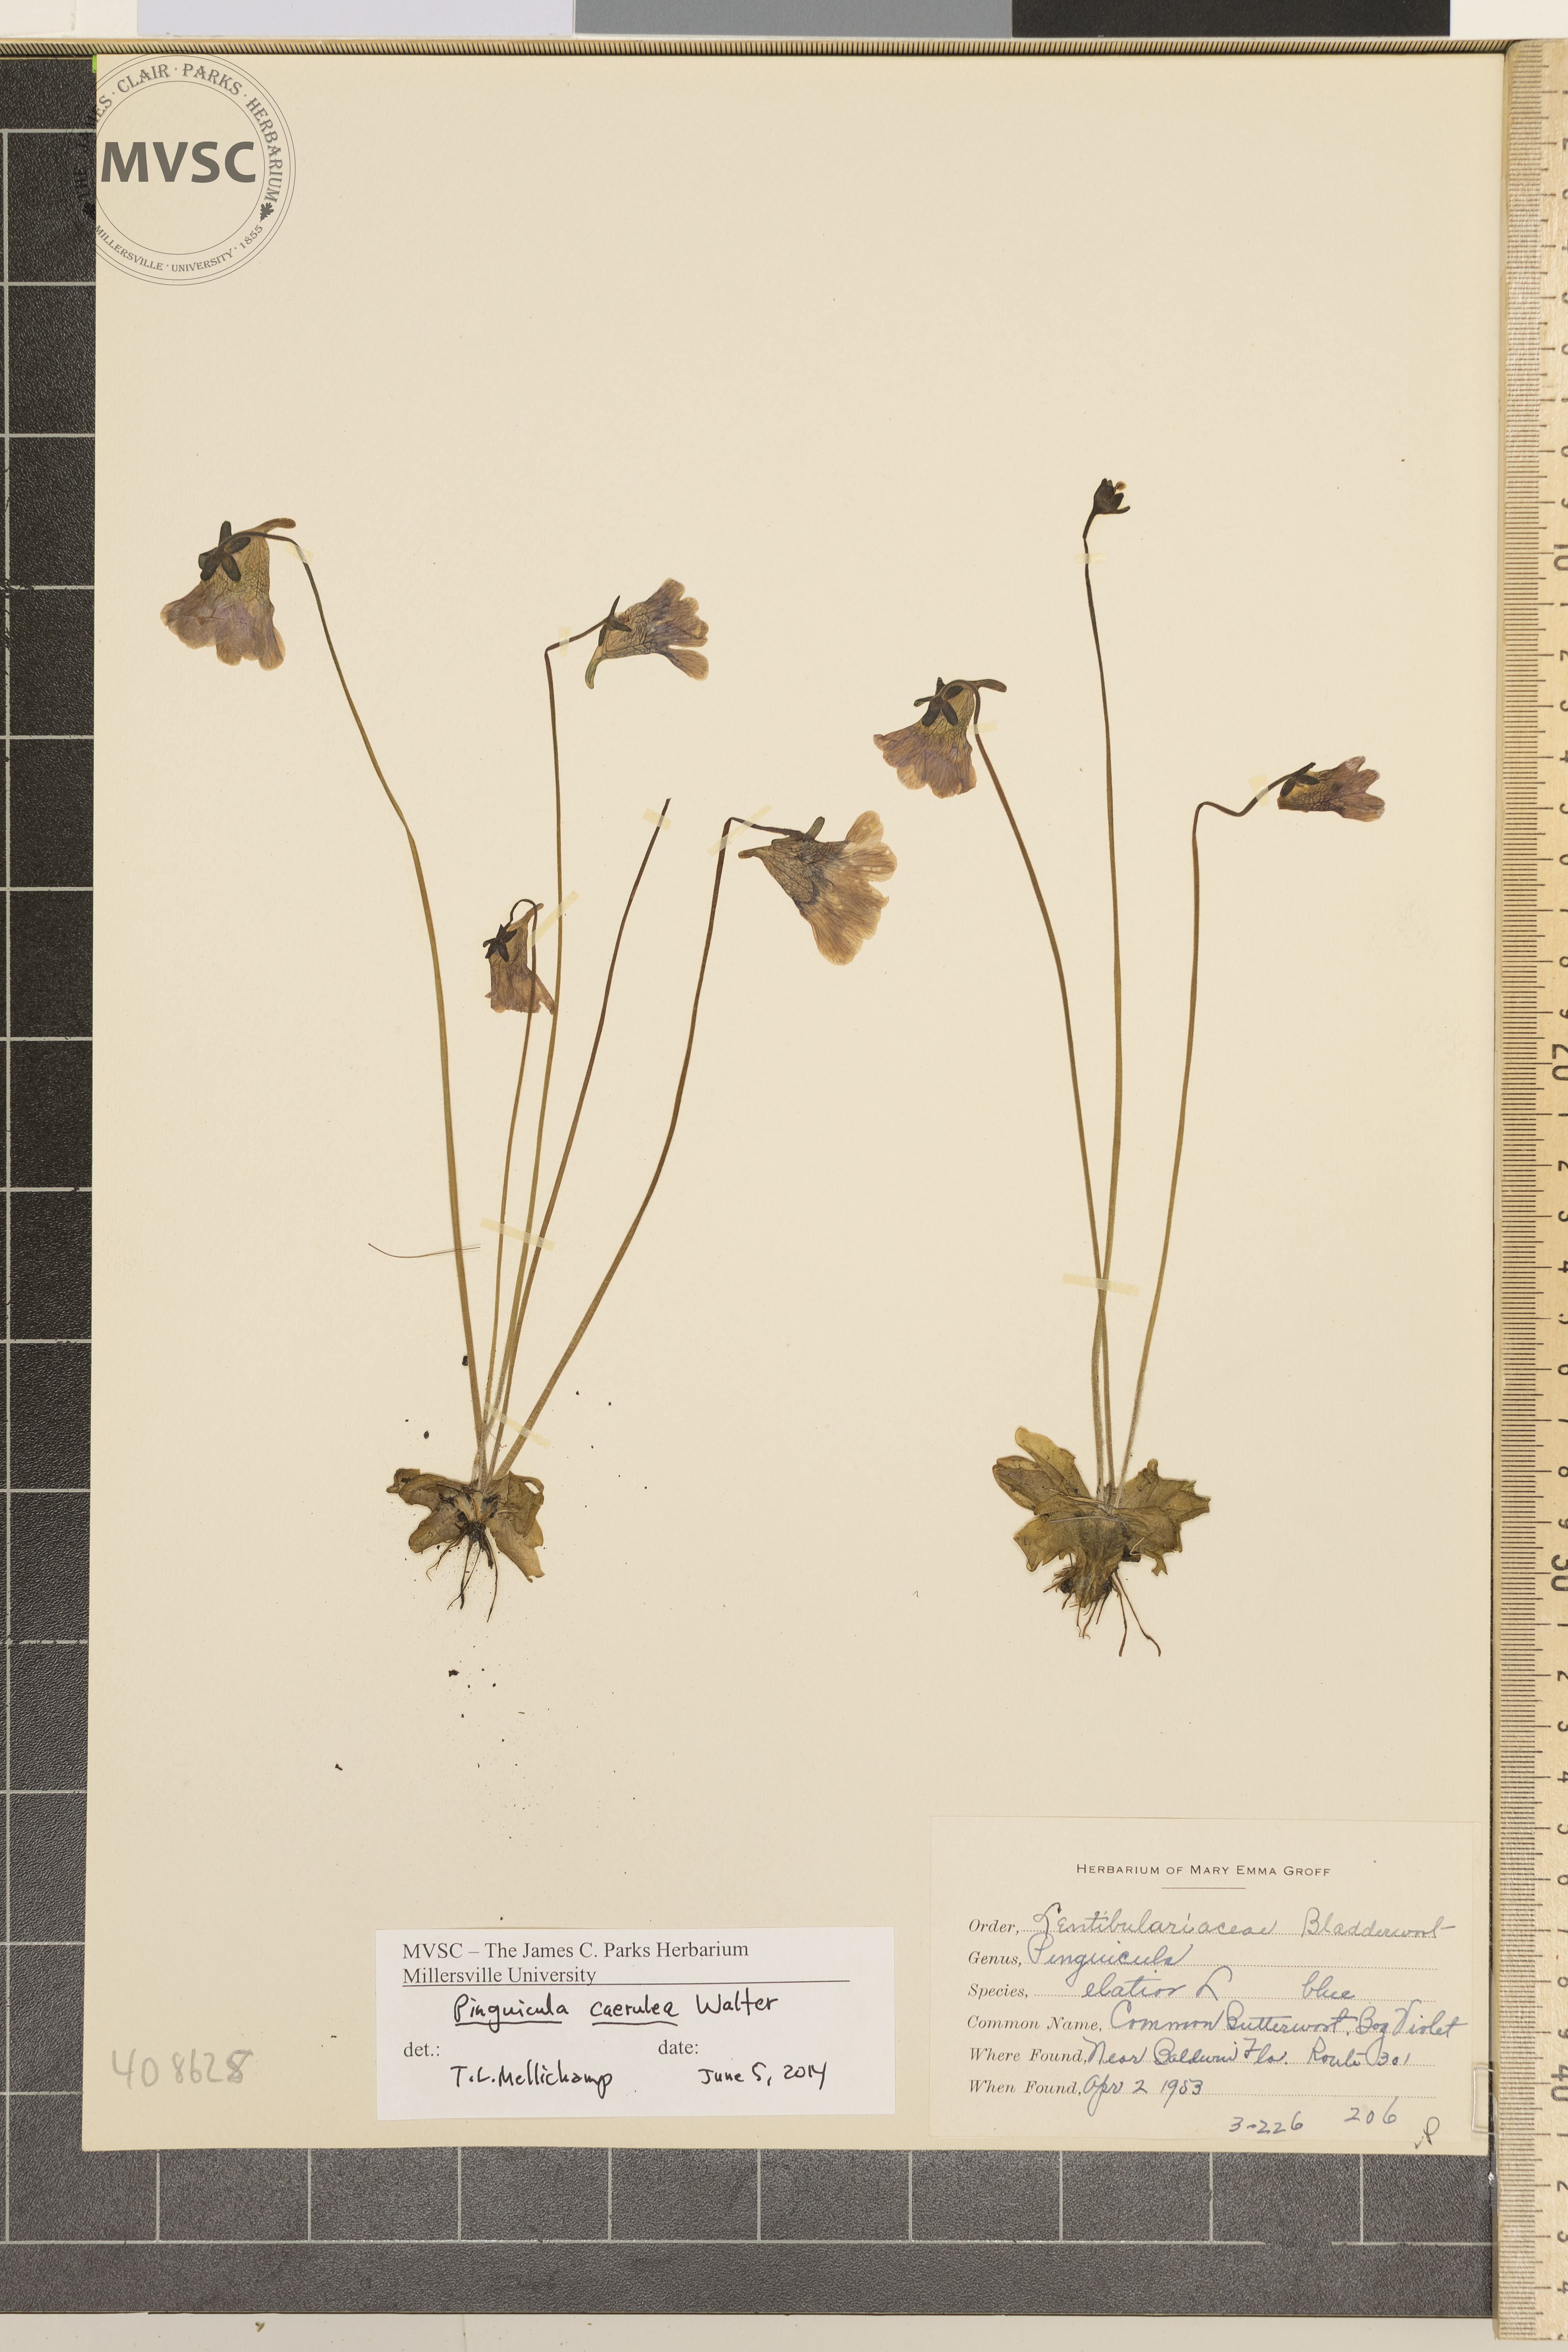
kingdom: Plantae
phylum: Tracheophyta
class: Magnoliopsida
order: Lamiales
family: Lentibulariaceae
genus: Pinguicula
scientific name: Pinguicula caerulea
